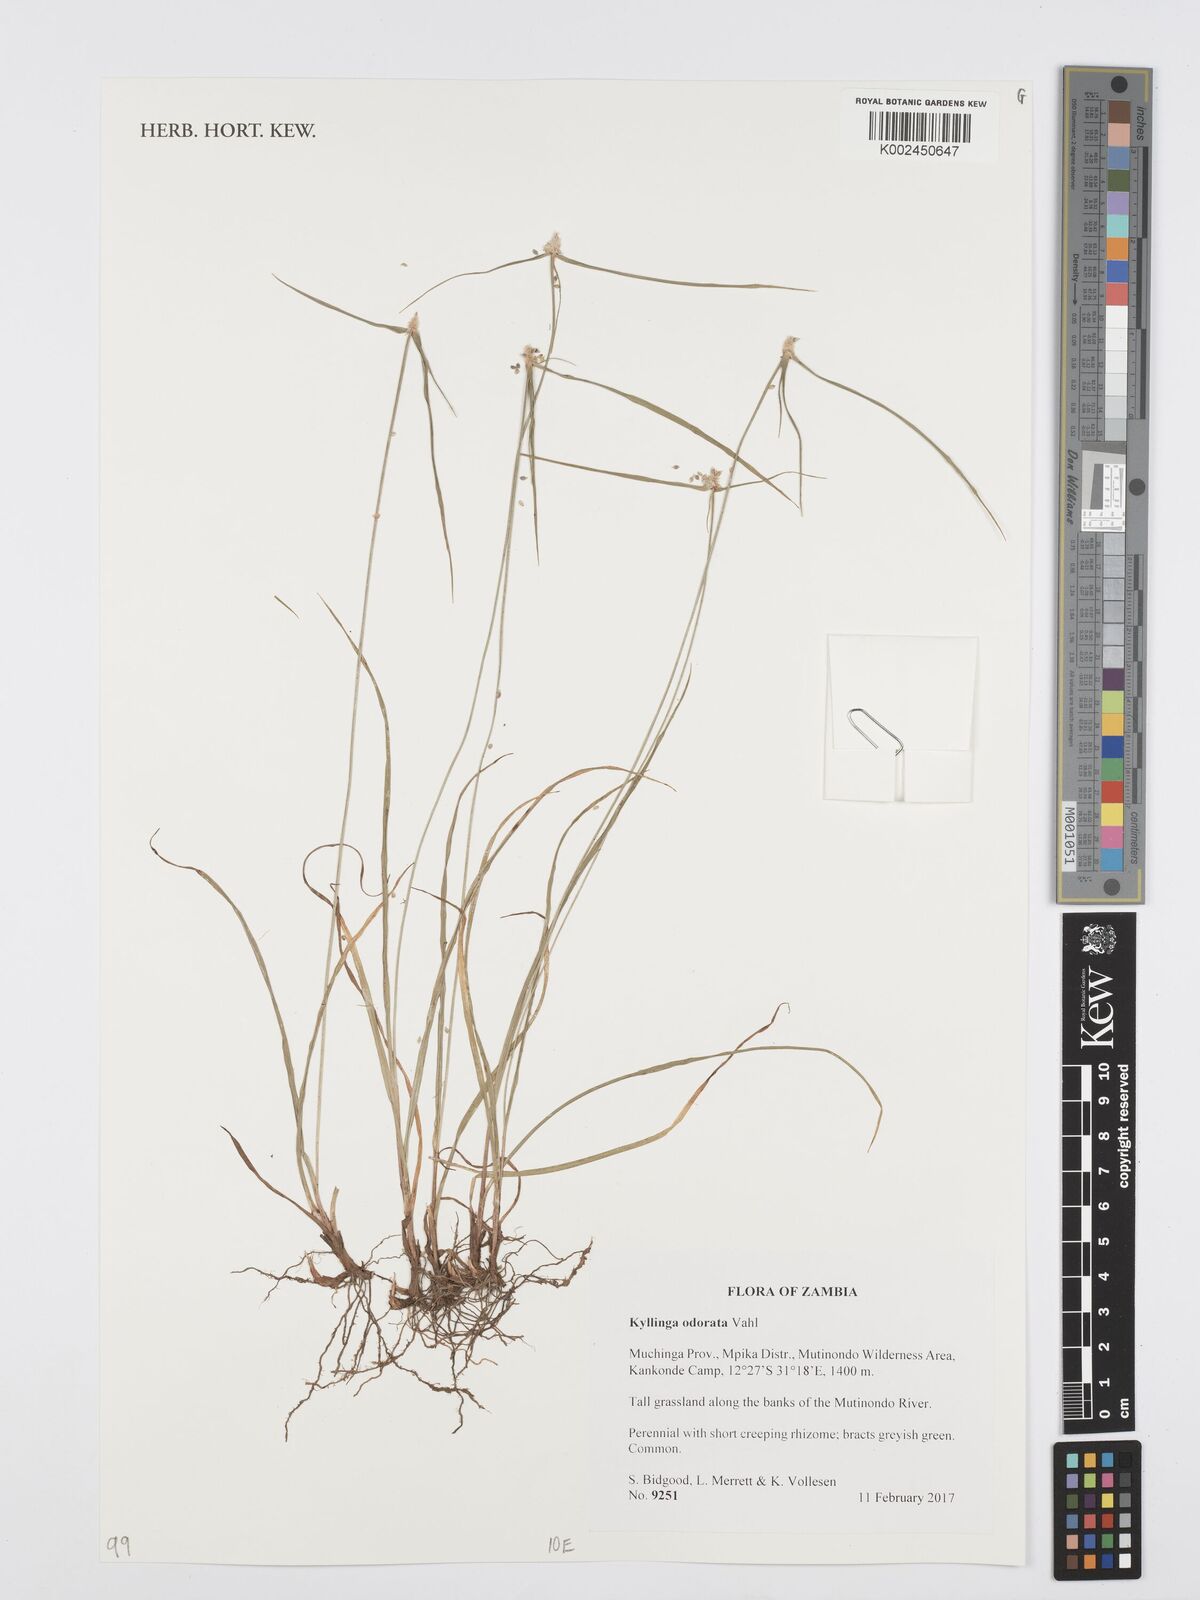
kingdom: Plantae
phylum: Tracheophyta
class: Liliopsida
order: Poales
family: Cyperaceae
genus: Cyperus
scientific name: Cyperus
